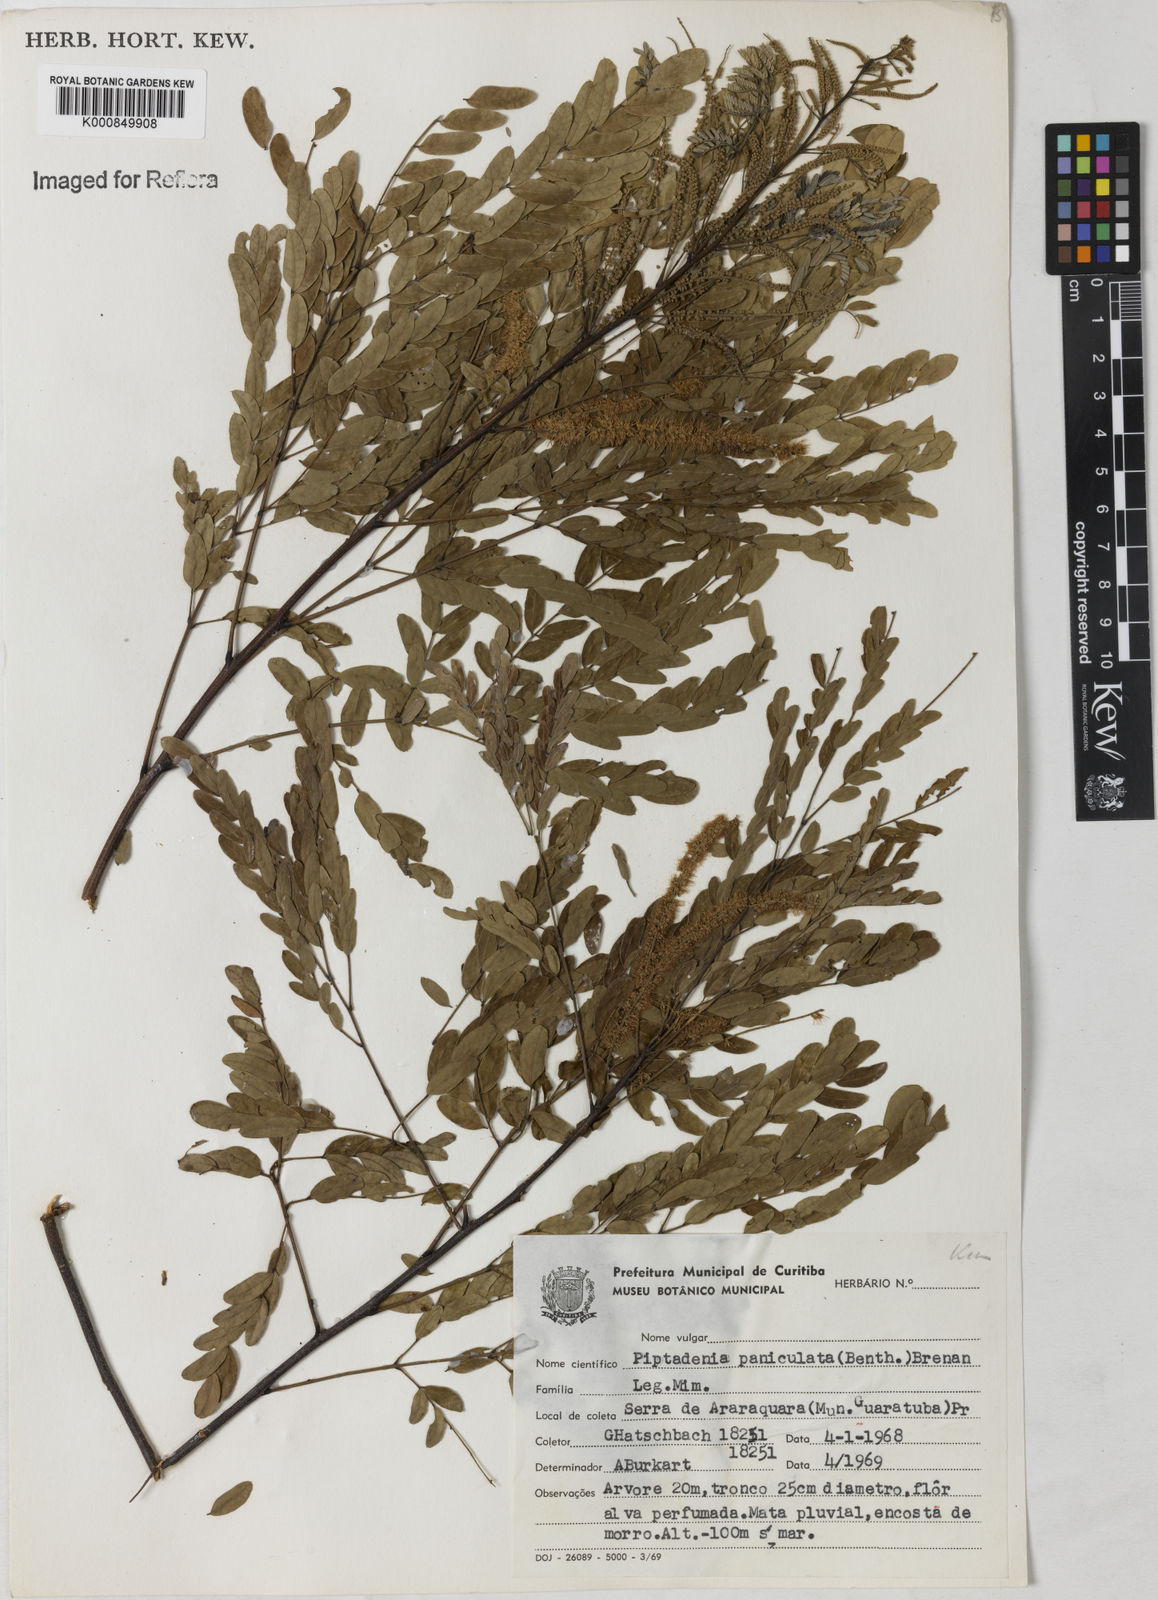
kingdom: Plantae
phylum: Tracheophyta
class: Magnoliopsida
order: Fabales
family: Fabaceae
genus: Piptadenia
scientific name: Piptadenia paniculata
